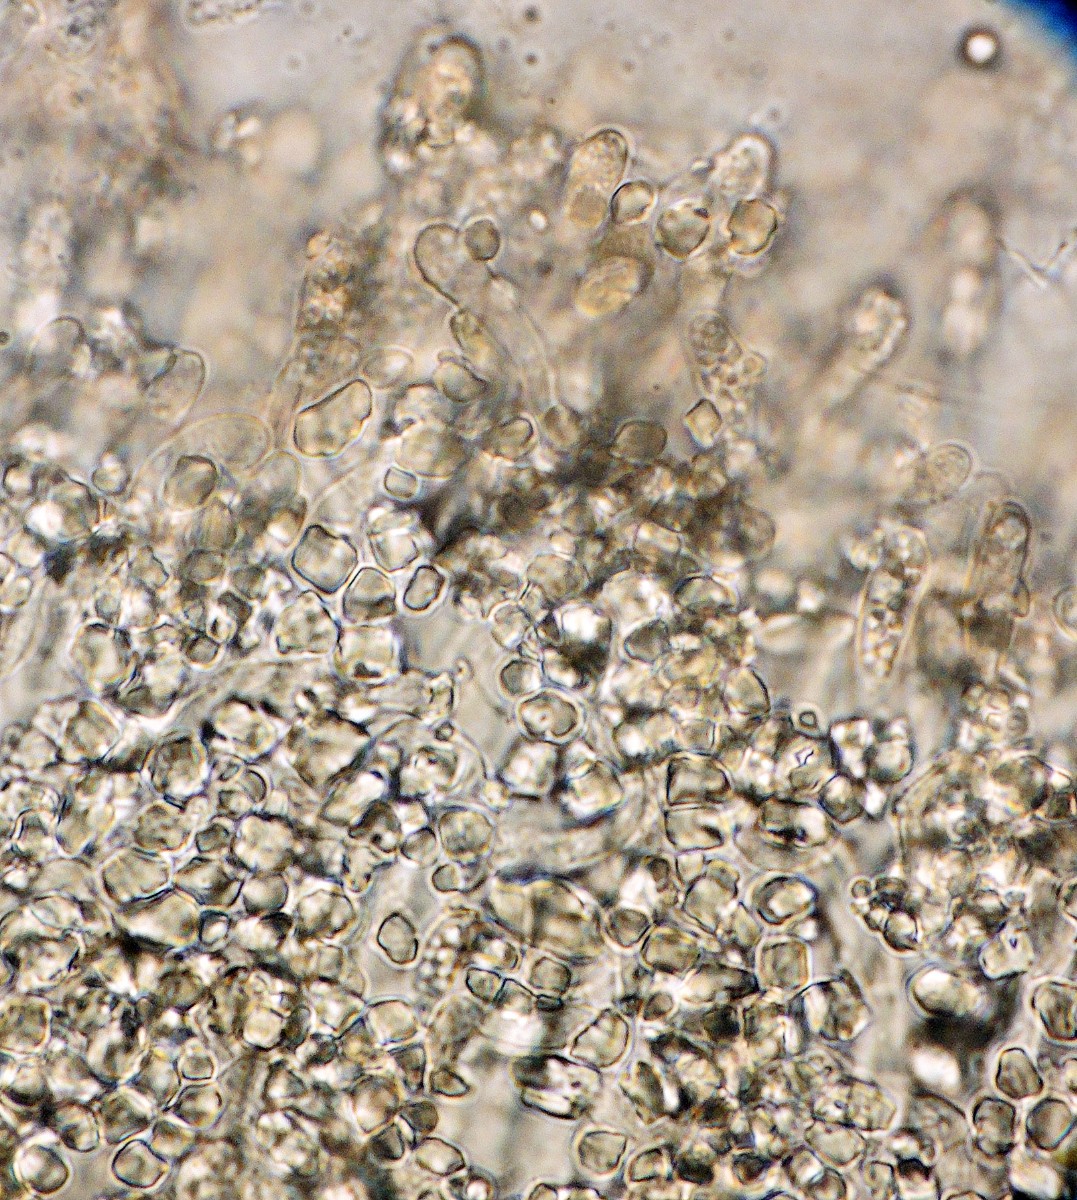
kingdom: Fungi
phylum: Ascomycota
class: Leotiomycetes
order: Helotiales
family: Hyaloscyphaceae
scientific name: Hyaloscyphaceae
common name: frynseskivefamilien
